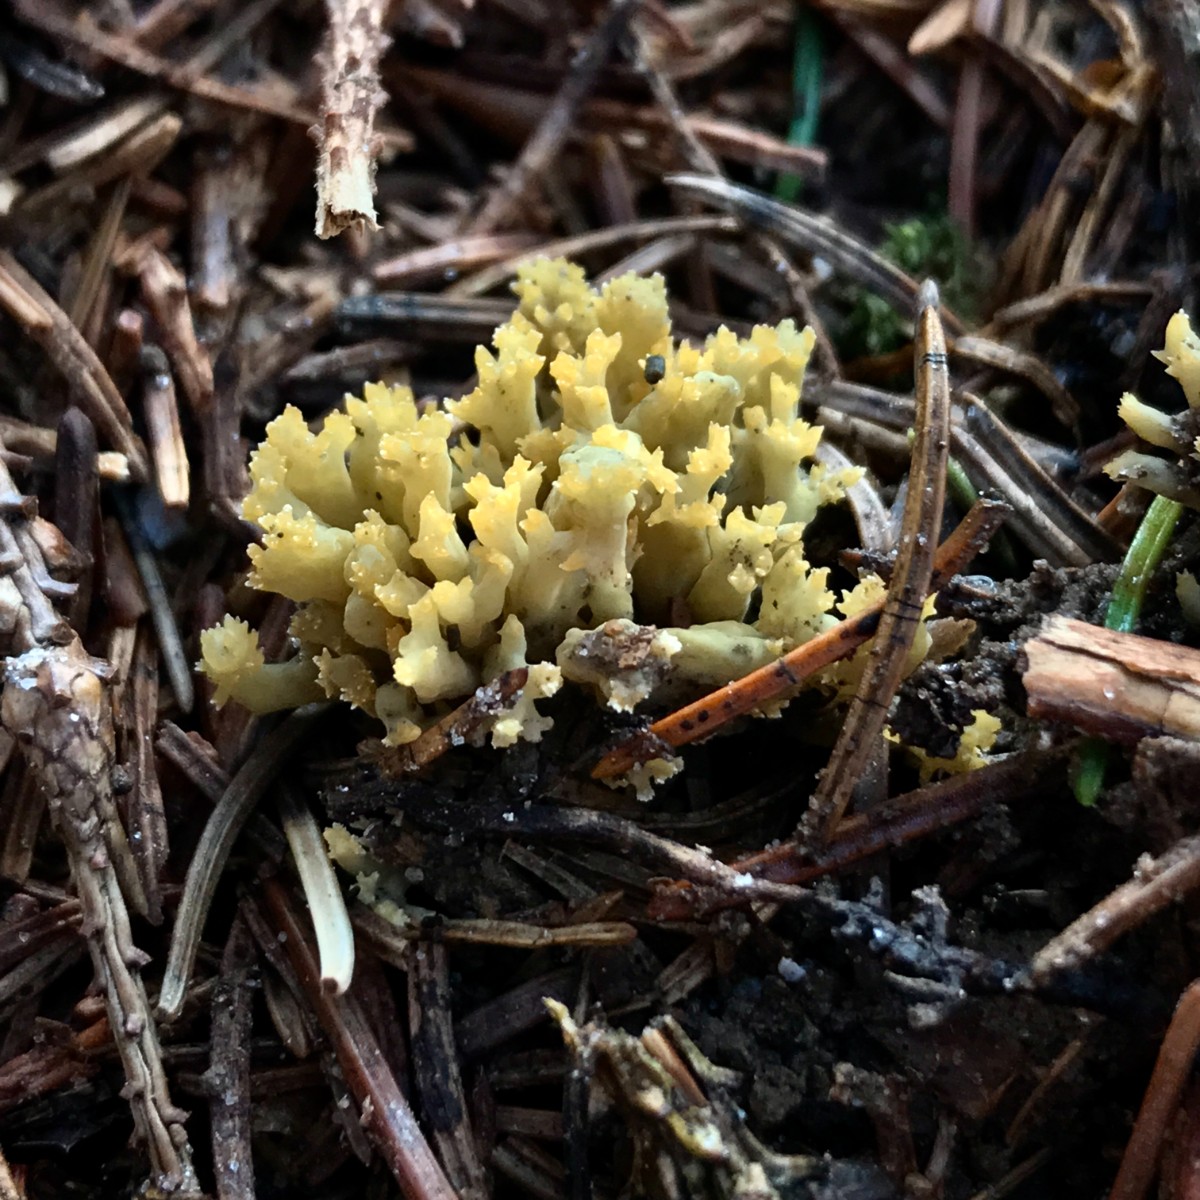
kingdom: Fungi
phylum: Basidiomycota
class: Agaricomycetes
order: Gomphales
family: Gomphaceae
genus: Phaeoclavulina
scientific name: Phaeoclavulina abietina
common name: gulgrøn koralsvamp
